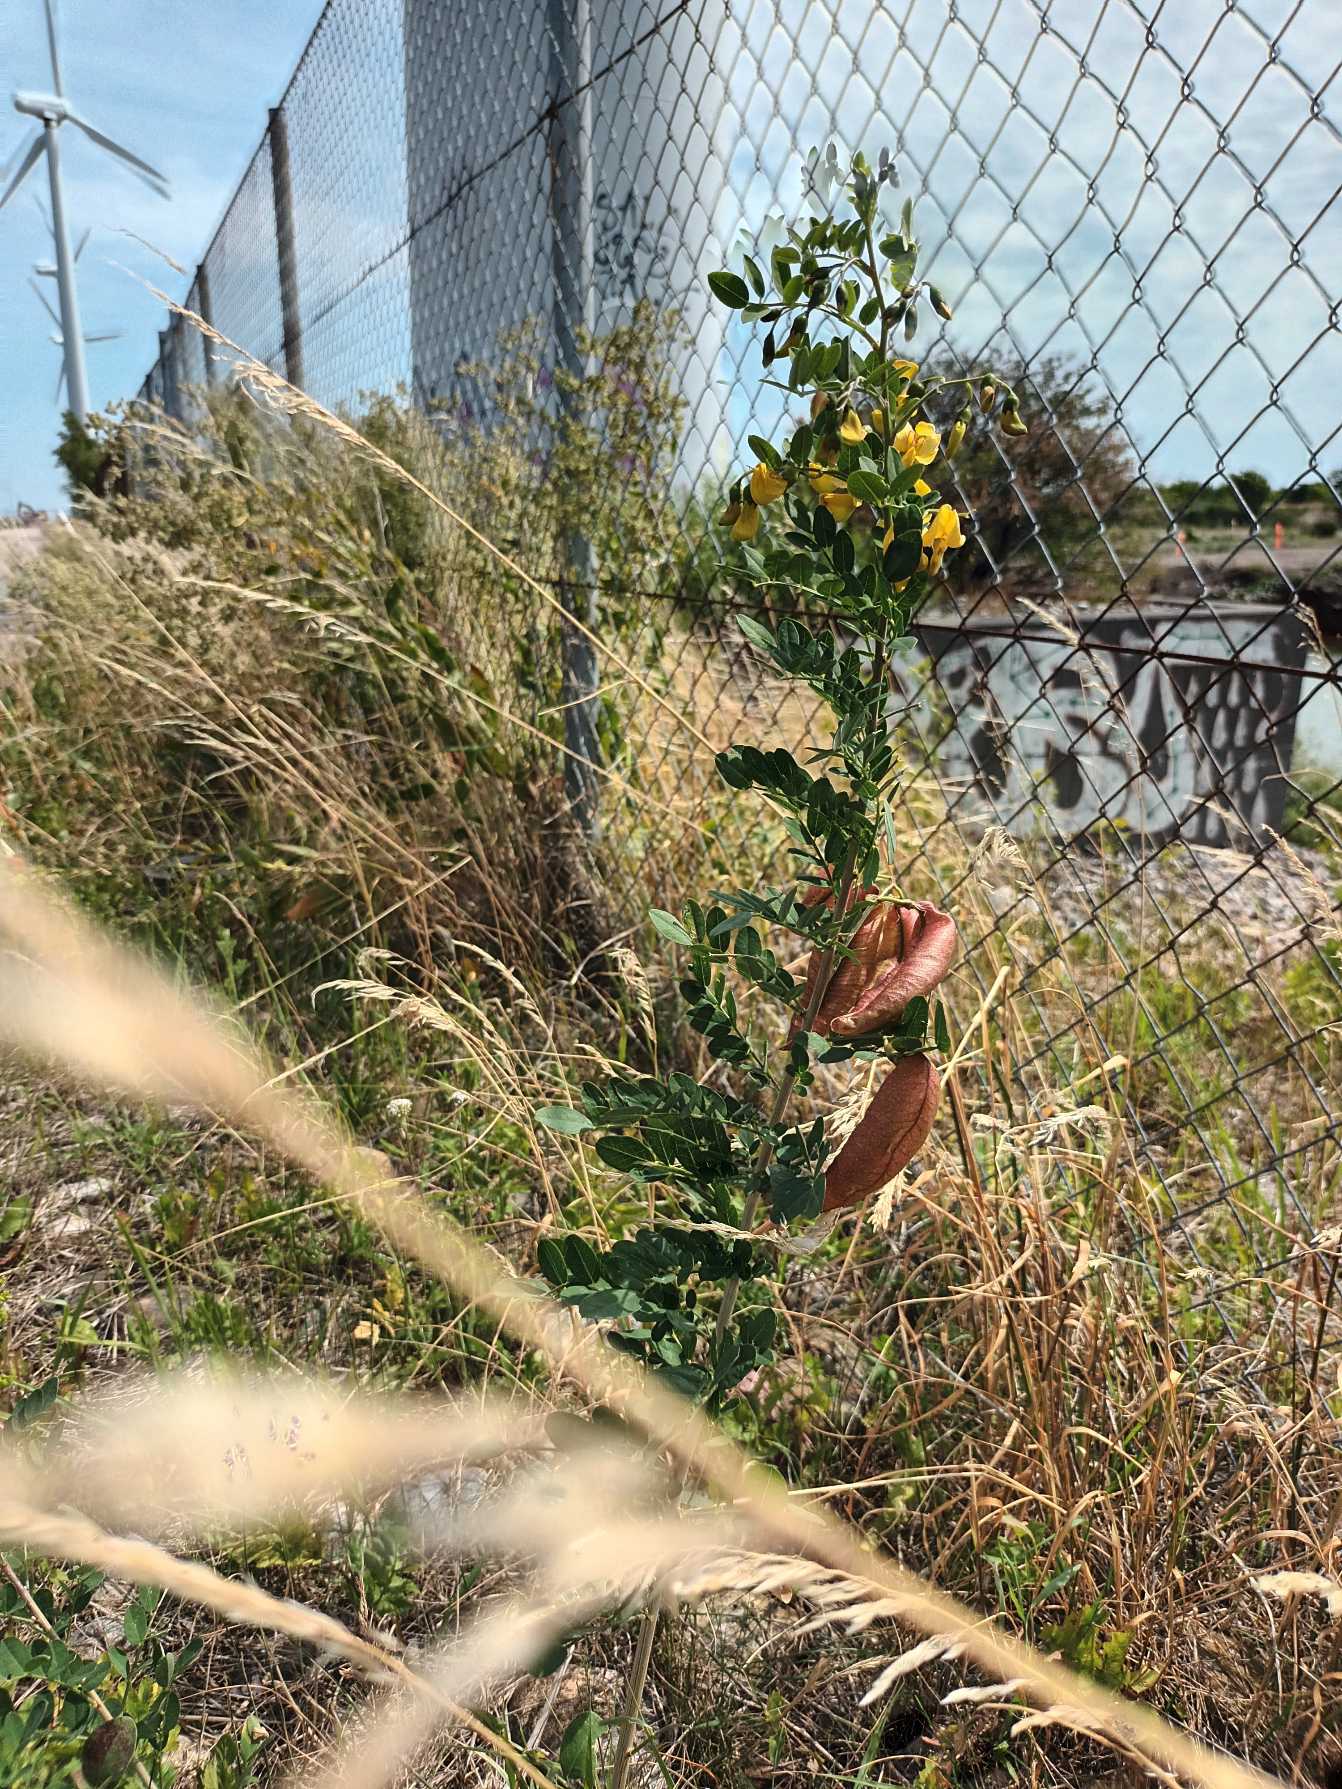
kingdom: Plantae
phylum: Tracheophyta
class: Magnoliopsida
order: Fabales
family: Fabaceae
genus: Colutea
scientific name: Colutea arborescens
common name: Almindelig blærebælg
